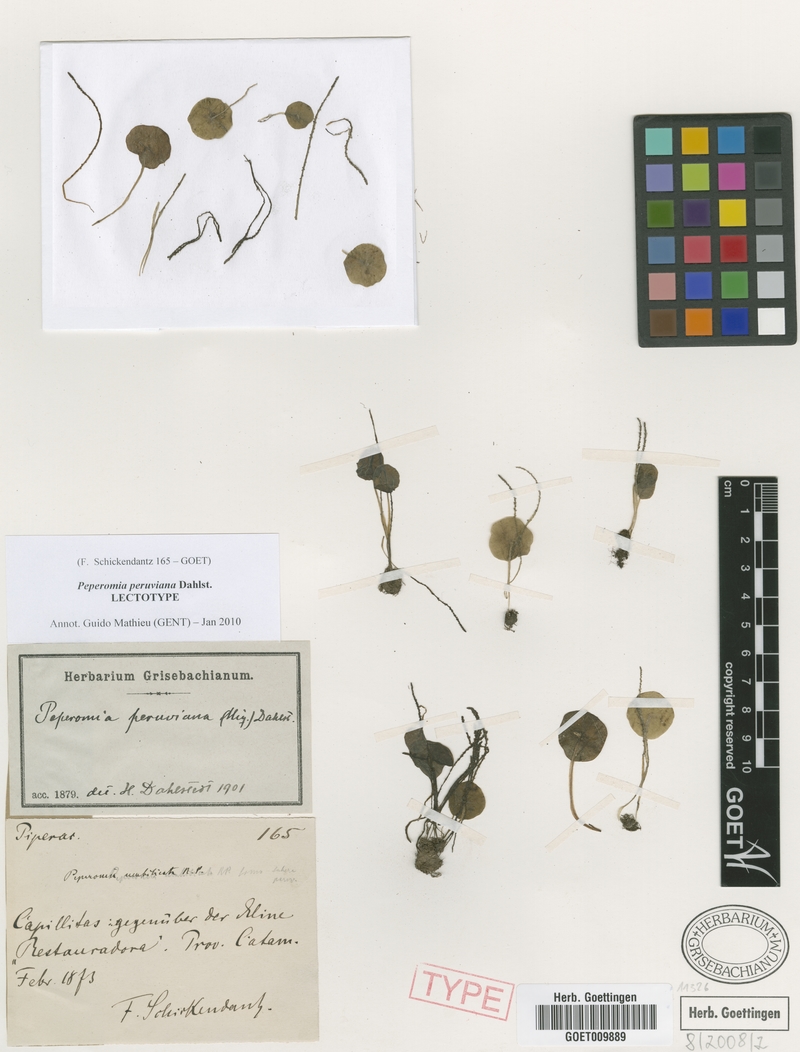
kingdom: Plantae
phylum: Tracheophyta
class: Magnoliopsida
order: Piperales
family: Piperaceae
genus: Peperomia
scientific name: Peperomia peruviana
